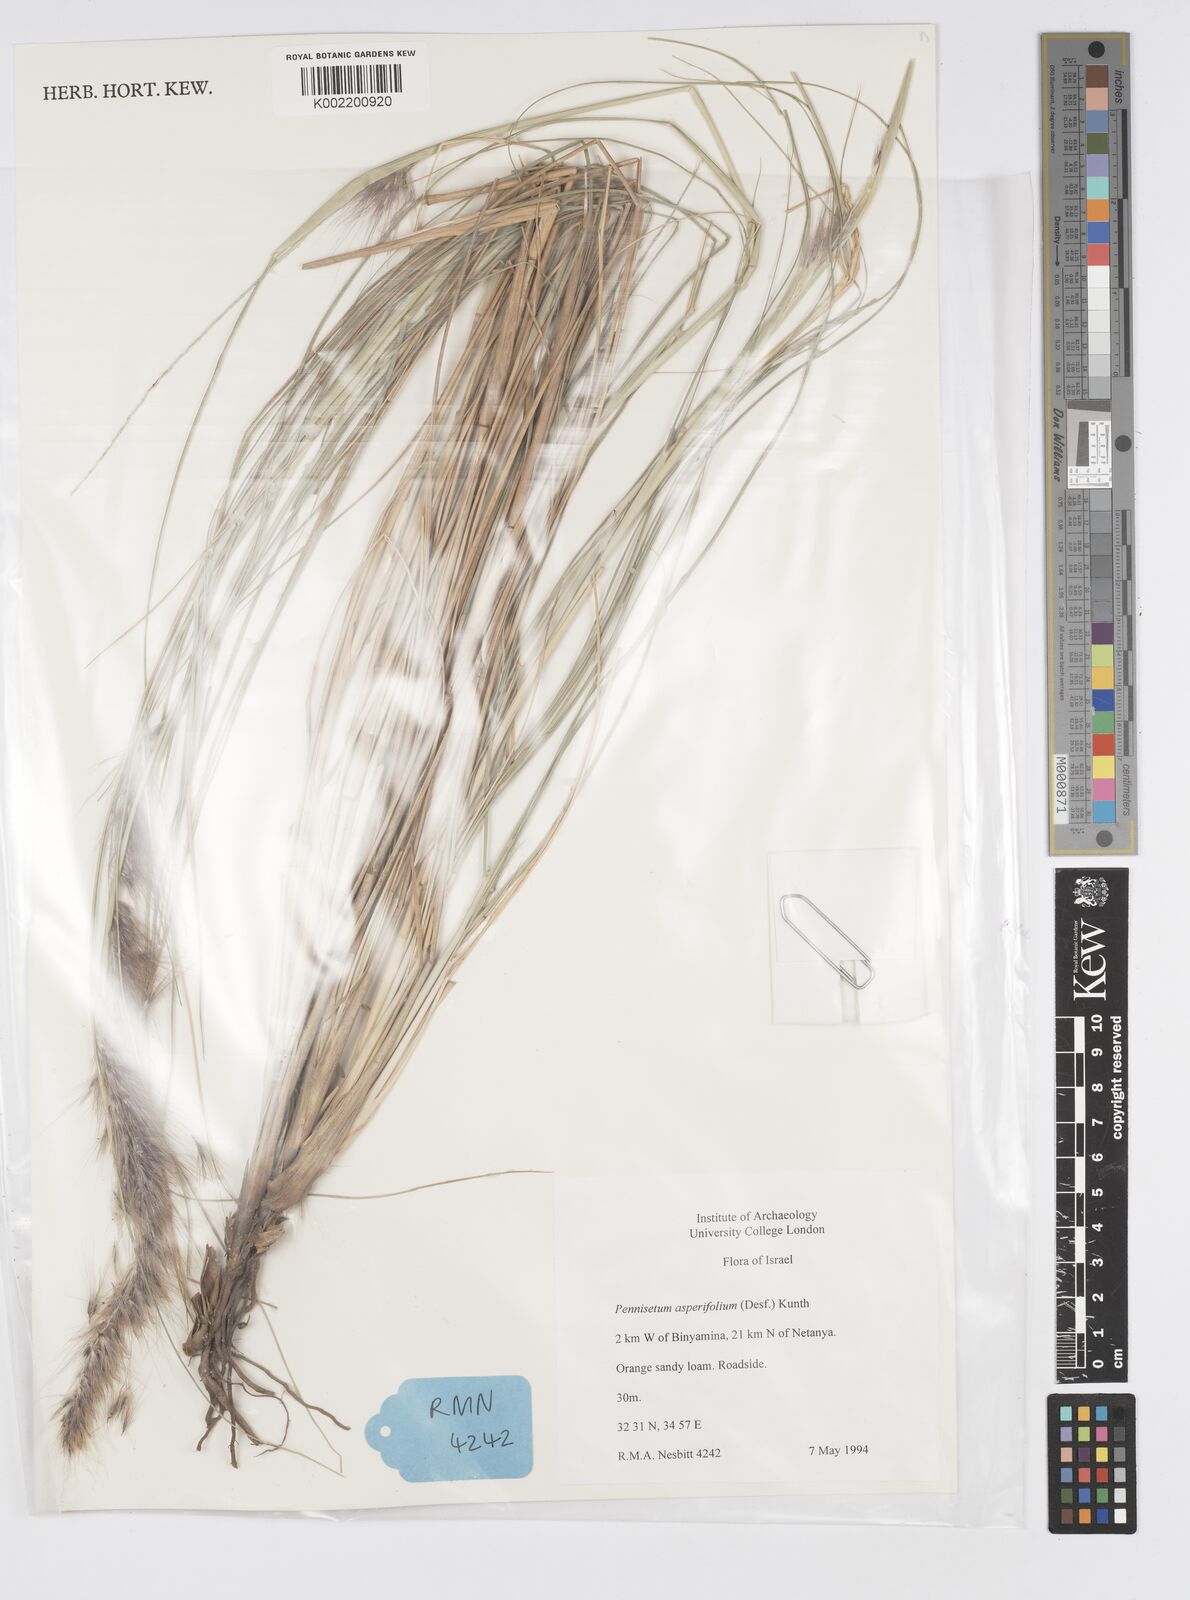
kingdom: Plantae
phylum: Tracheophyta
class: Liliopsida
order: Poales
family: Poaceae
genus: Cenchrus
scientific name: Cenchrus setaceus
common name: Crimson fountaingrass
